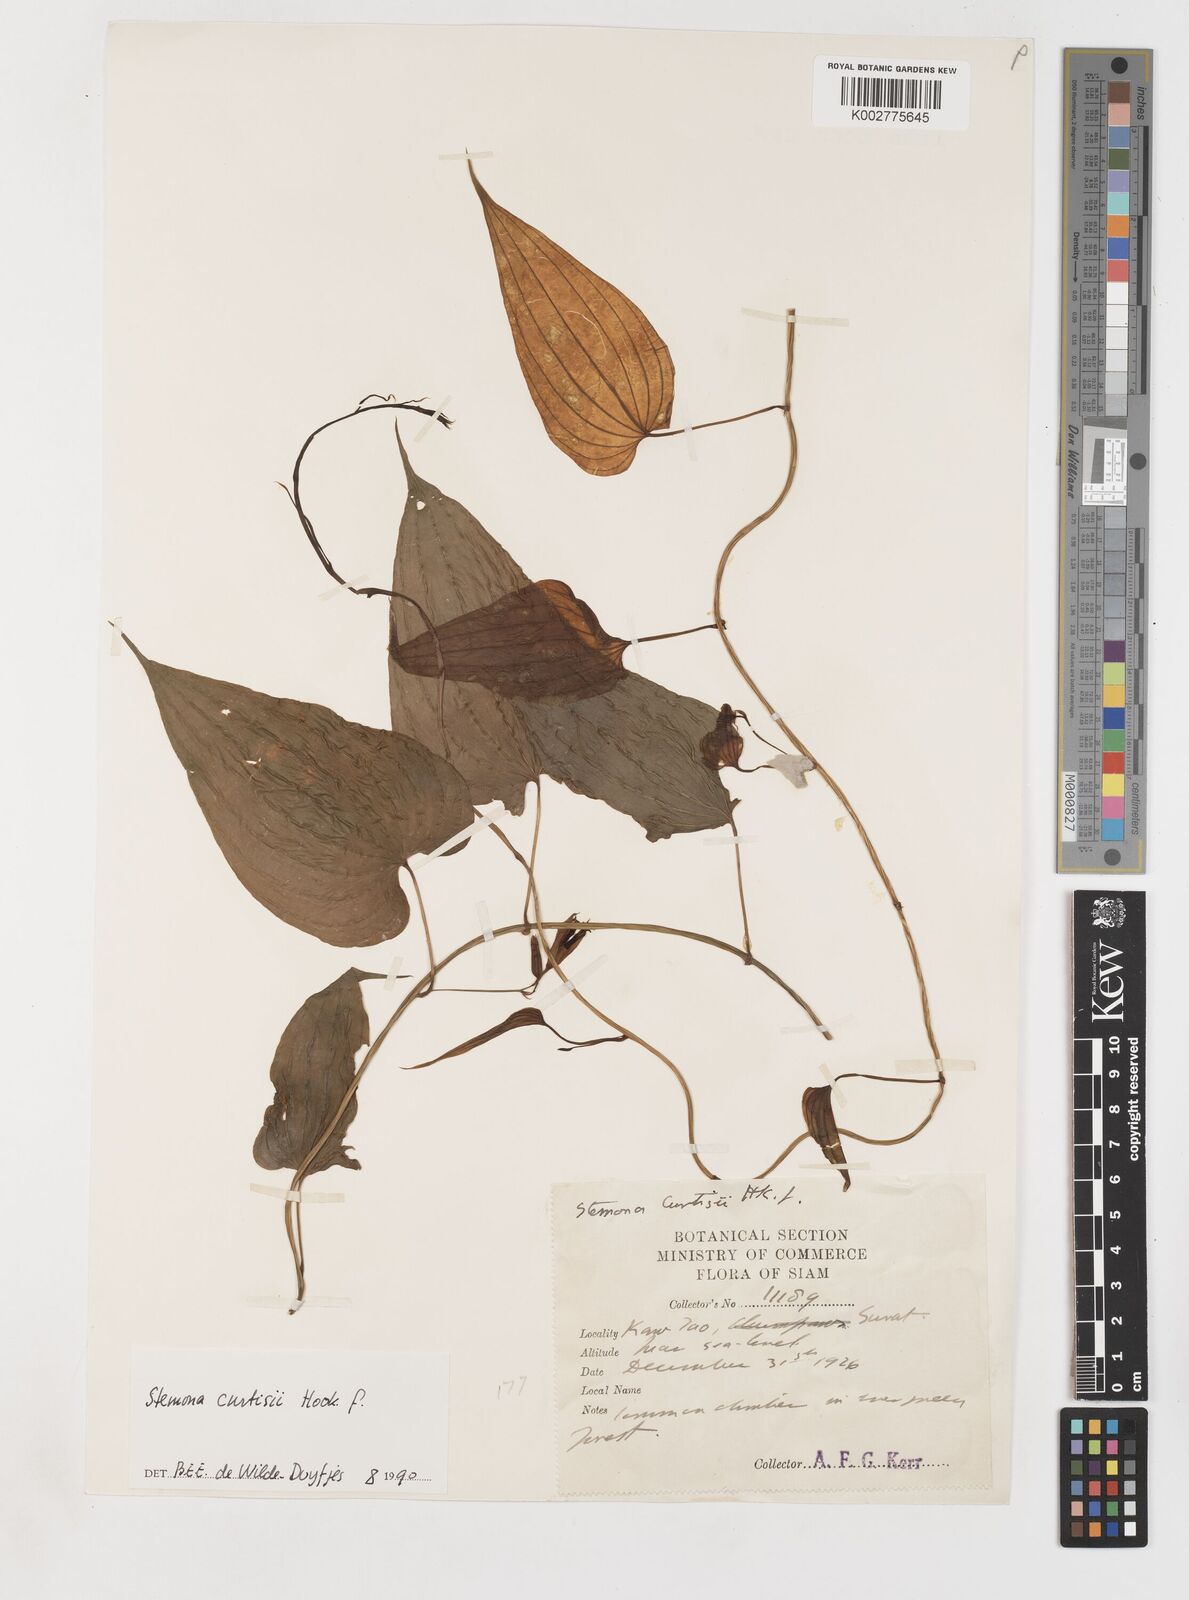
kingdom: Plantae
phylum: Tracheophyta
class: Liliopsida
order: Pandanales
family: Stemonaceae
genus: Stemona
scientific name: Stemona curtisii
